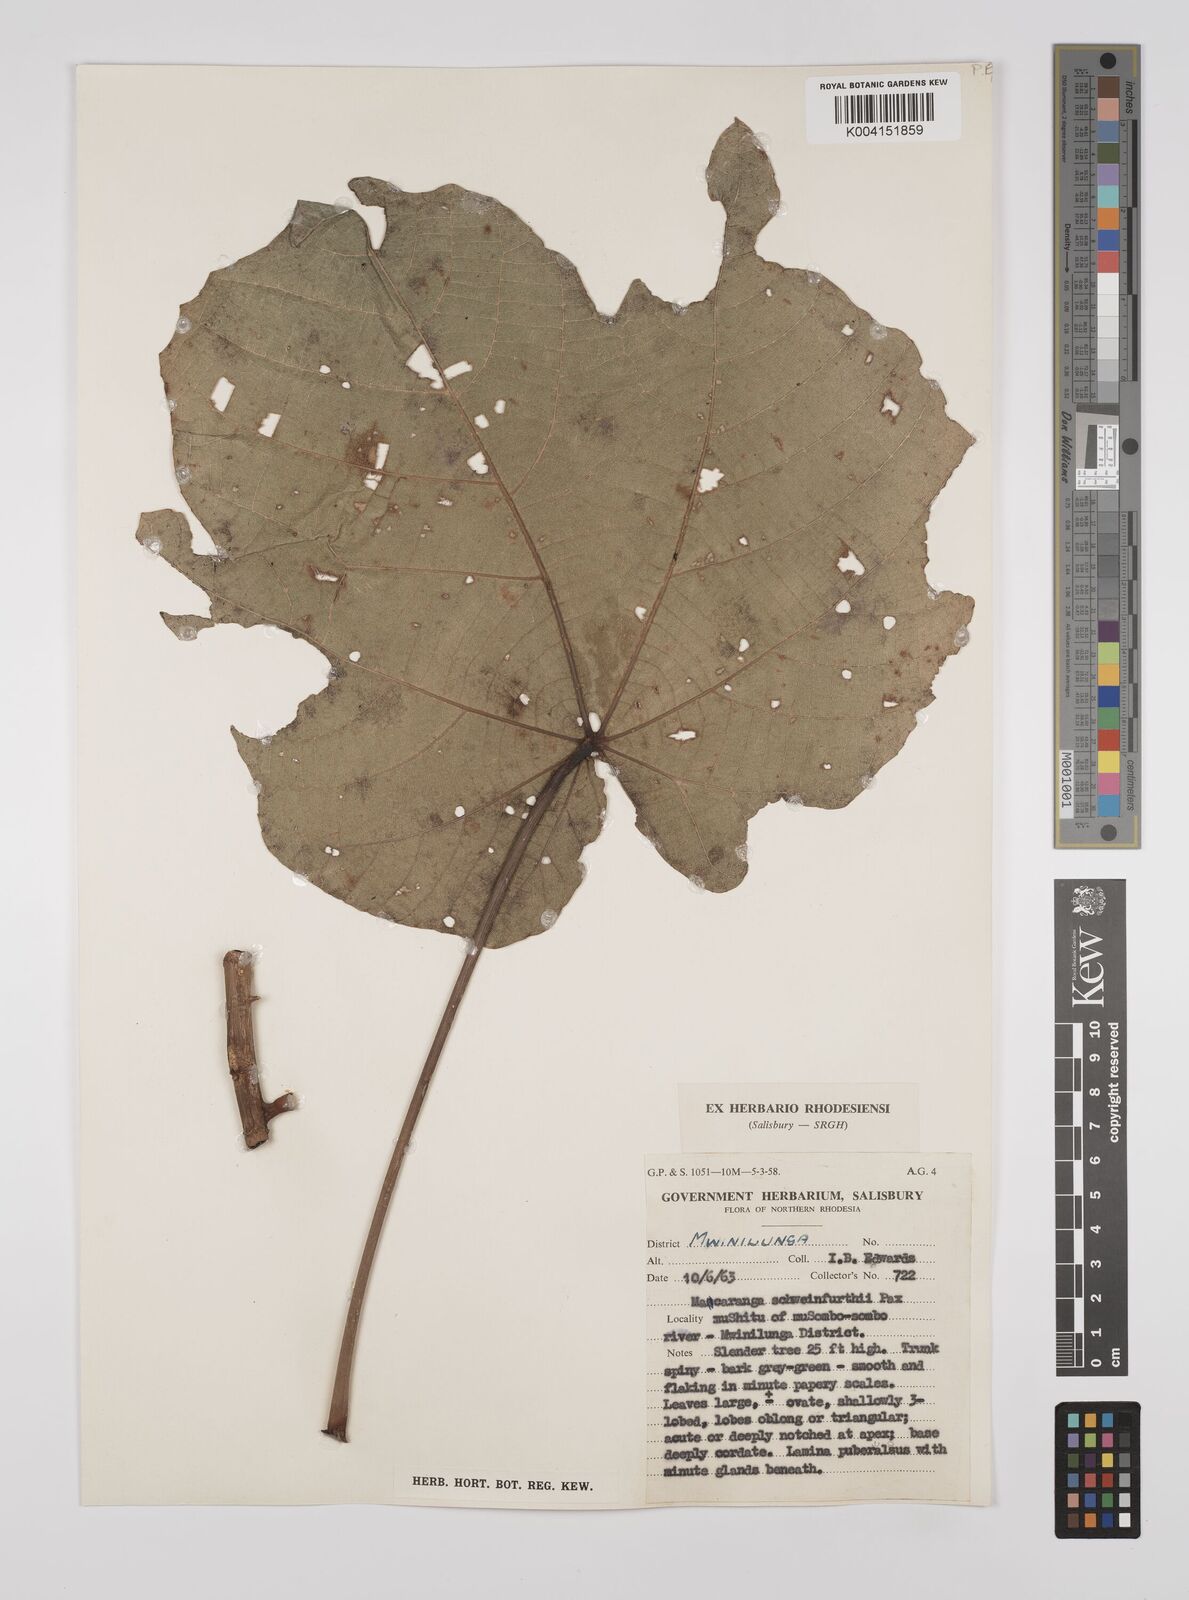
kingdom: Plantae
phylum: Tracheophyta
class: Magnoliopsida
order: Malpighiales
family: Euphorbiaceae
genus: Macaranga
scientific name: Macaranga schweinfurthii
